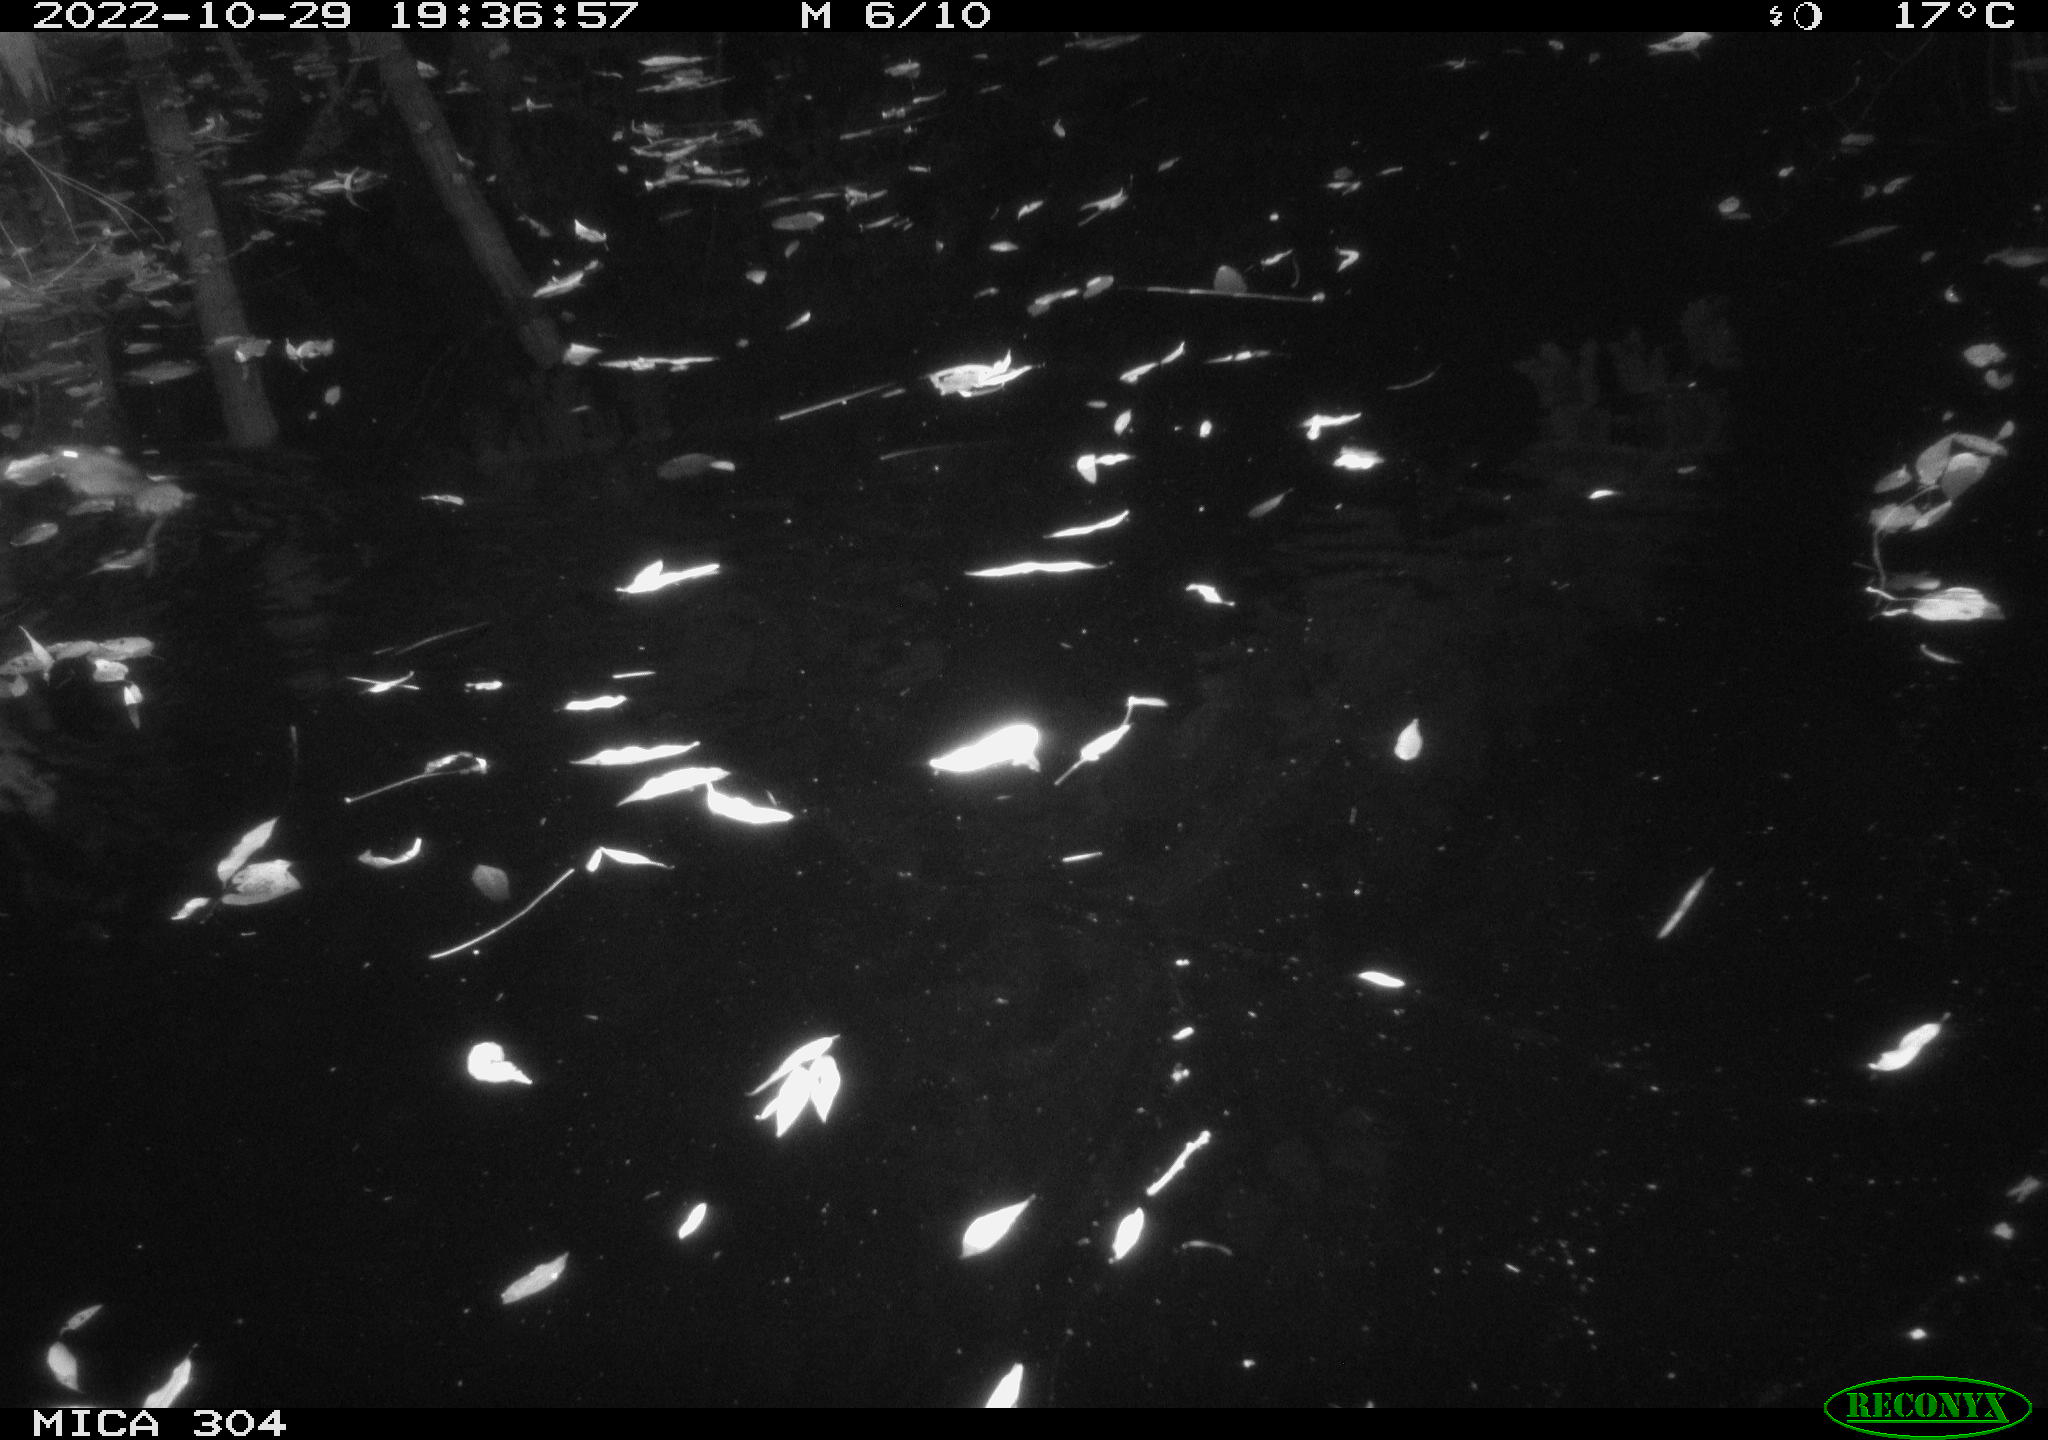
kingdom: Animalia
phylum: Chordata
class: Mammalia
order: Rodentia
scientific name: Rodentia
